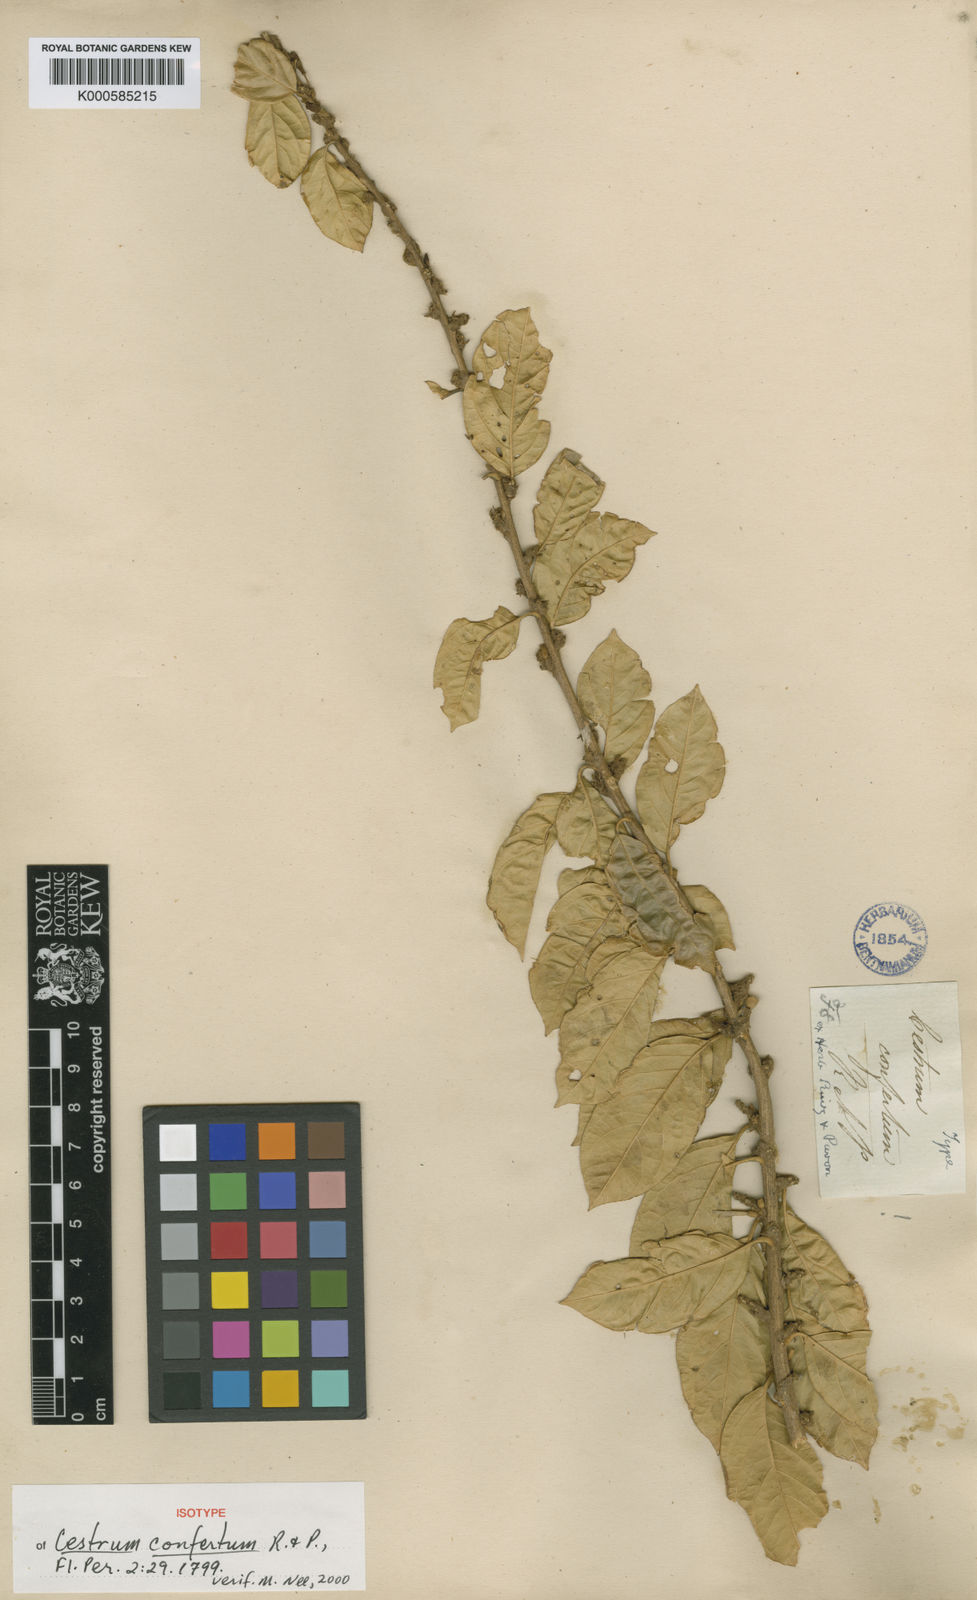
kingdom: Plantae
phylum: Tracheophyta
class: Magnoliopsida
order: Solanales
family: Solanaceae
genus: Cestrum
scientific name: Cestrum zarucchianum
